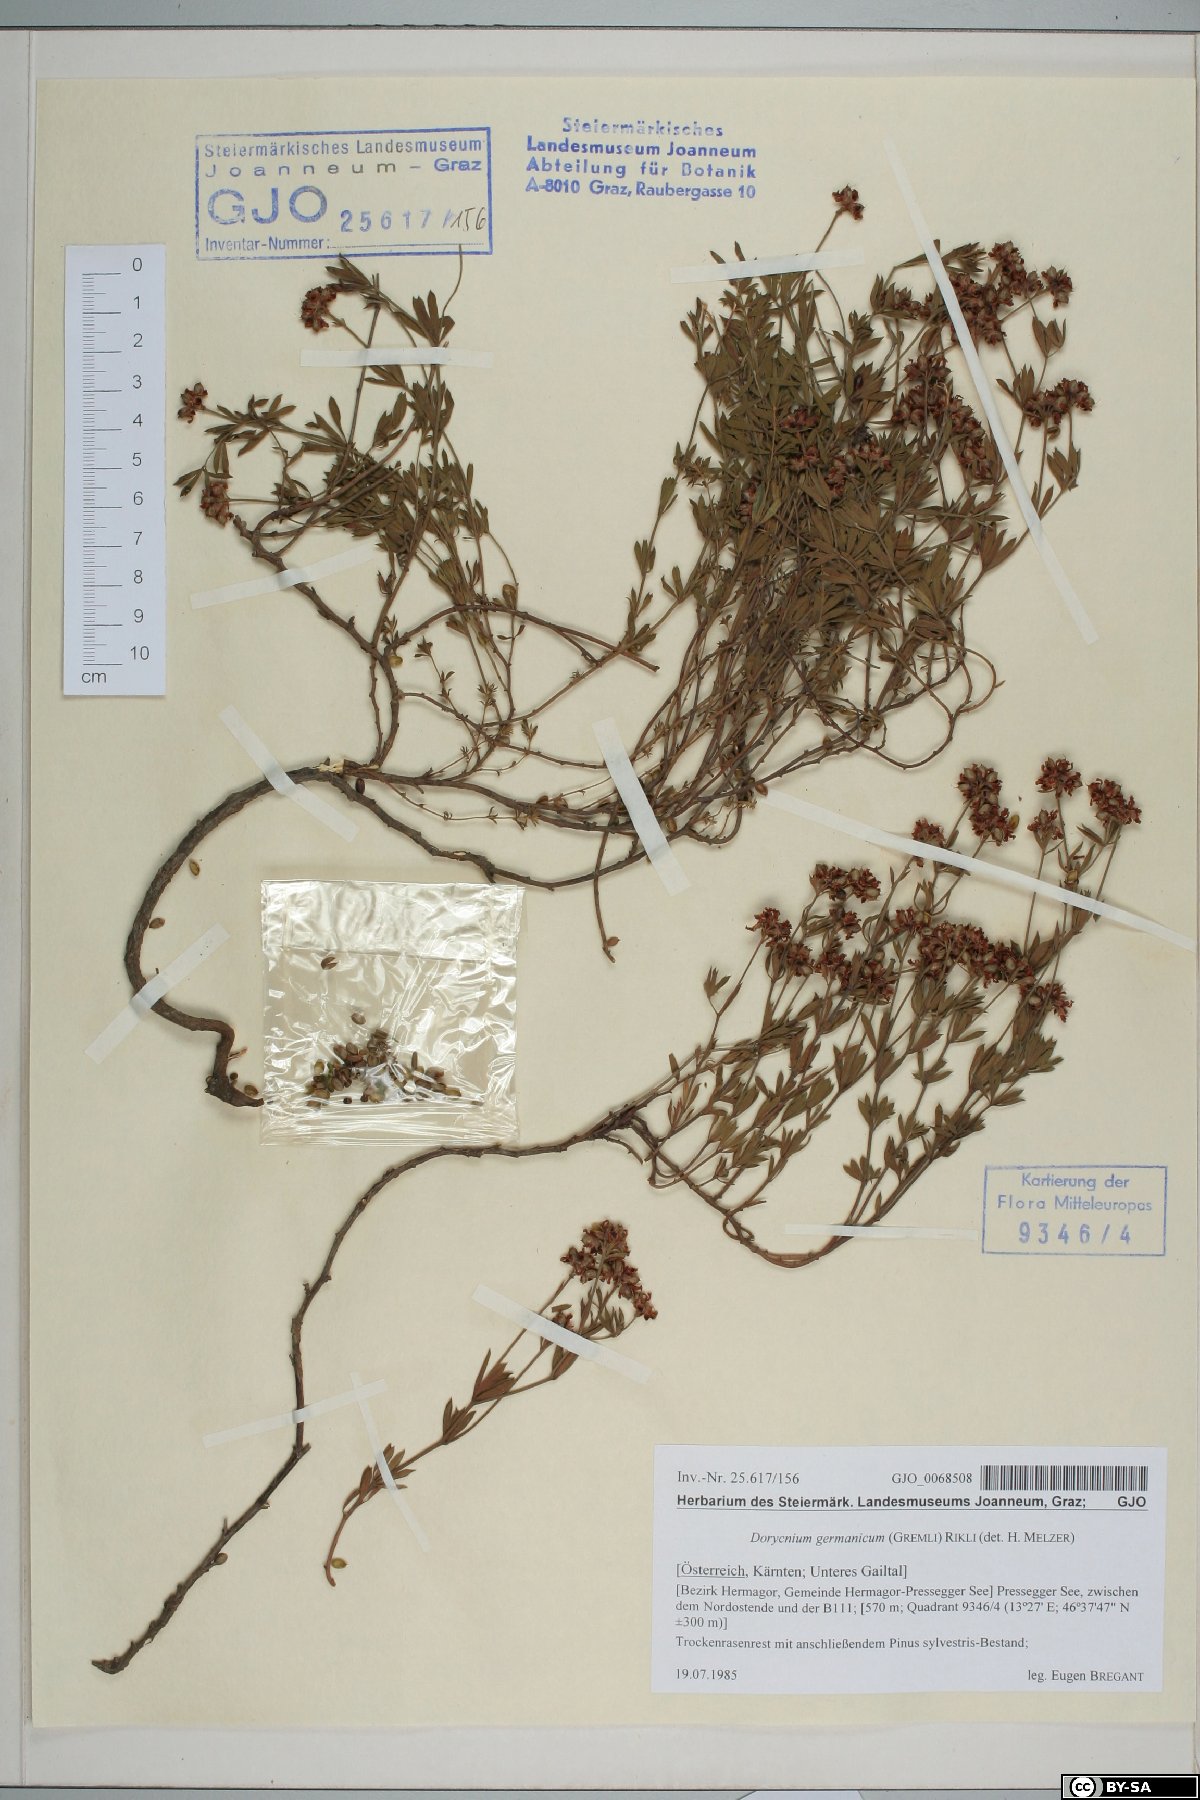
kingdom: Plantae
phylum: Tracheophyta
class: Magnoliopsida
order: Fabales
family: Fabaceae
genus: Lotus
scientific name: Lotus germanicus
